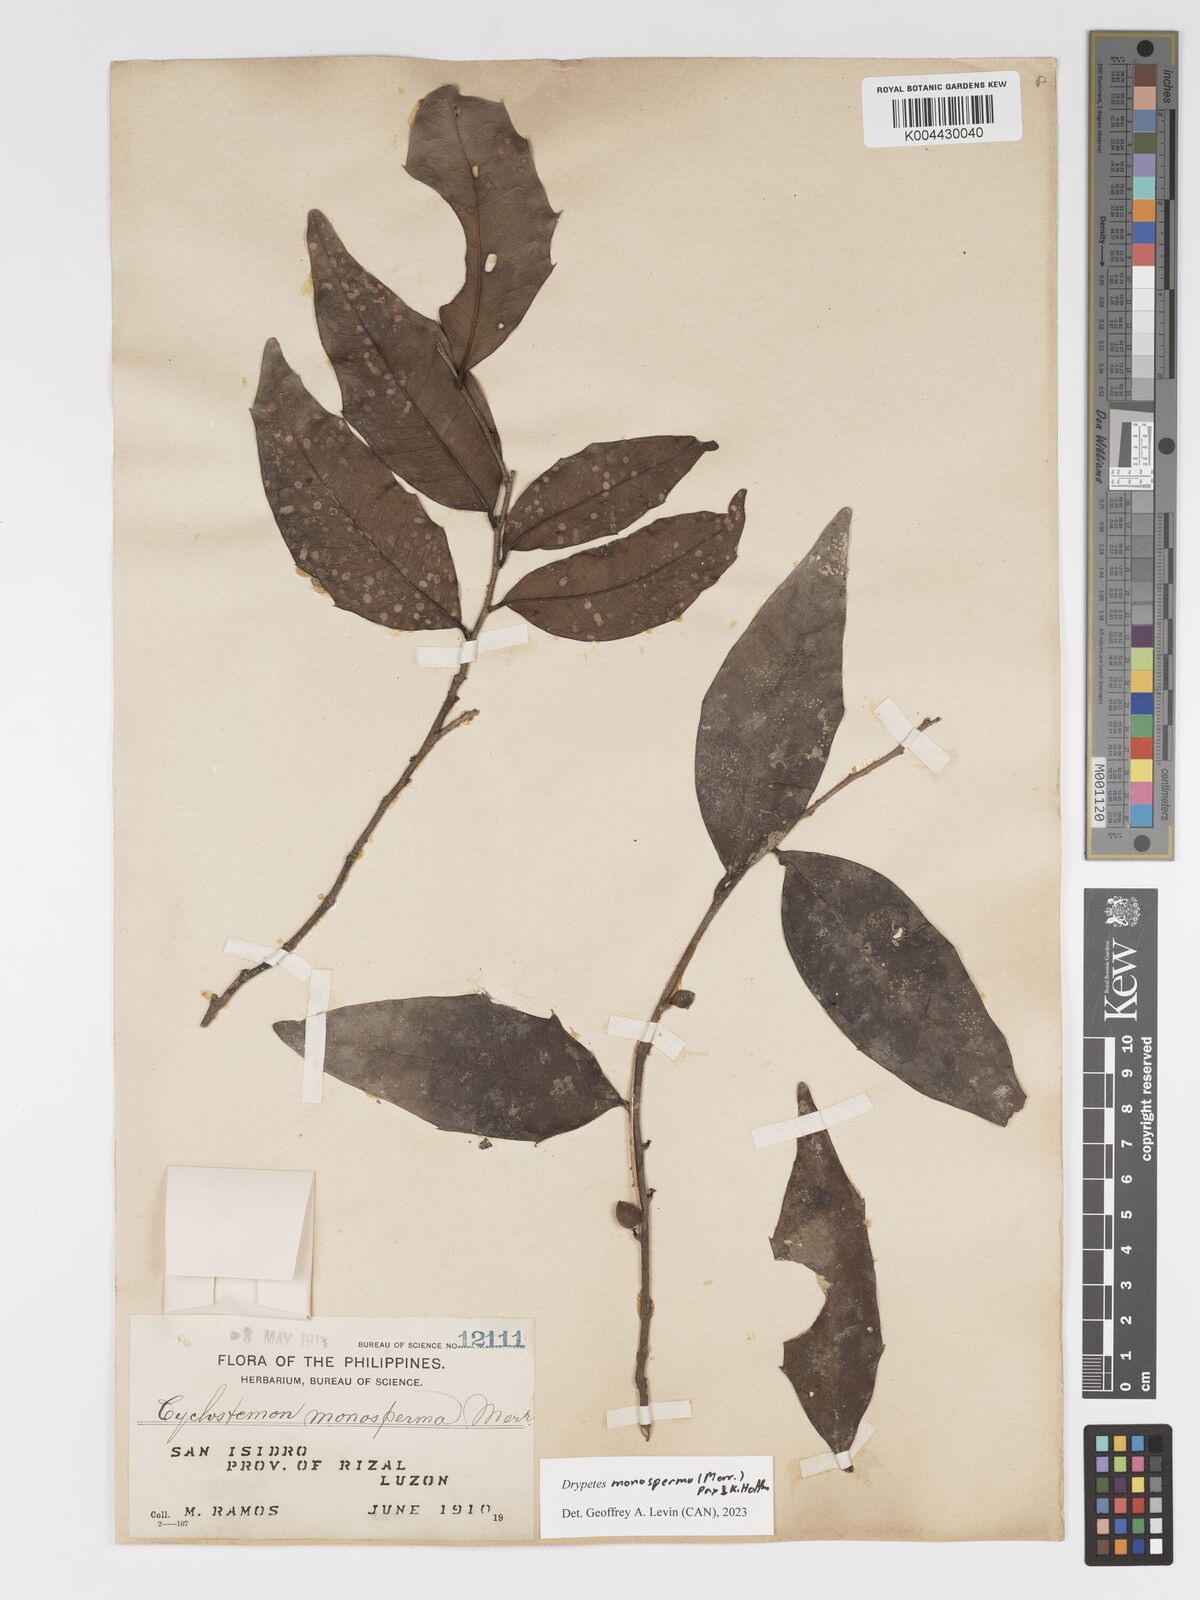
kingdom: Plantae
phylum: Tracheophyta
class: Magnoliopsida
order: Malpighiales
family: Putranjivaceae
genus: Drypetes
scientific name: Drypetes monosperma
